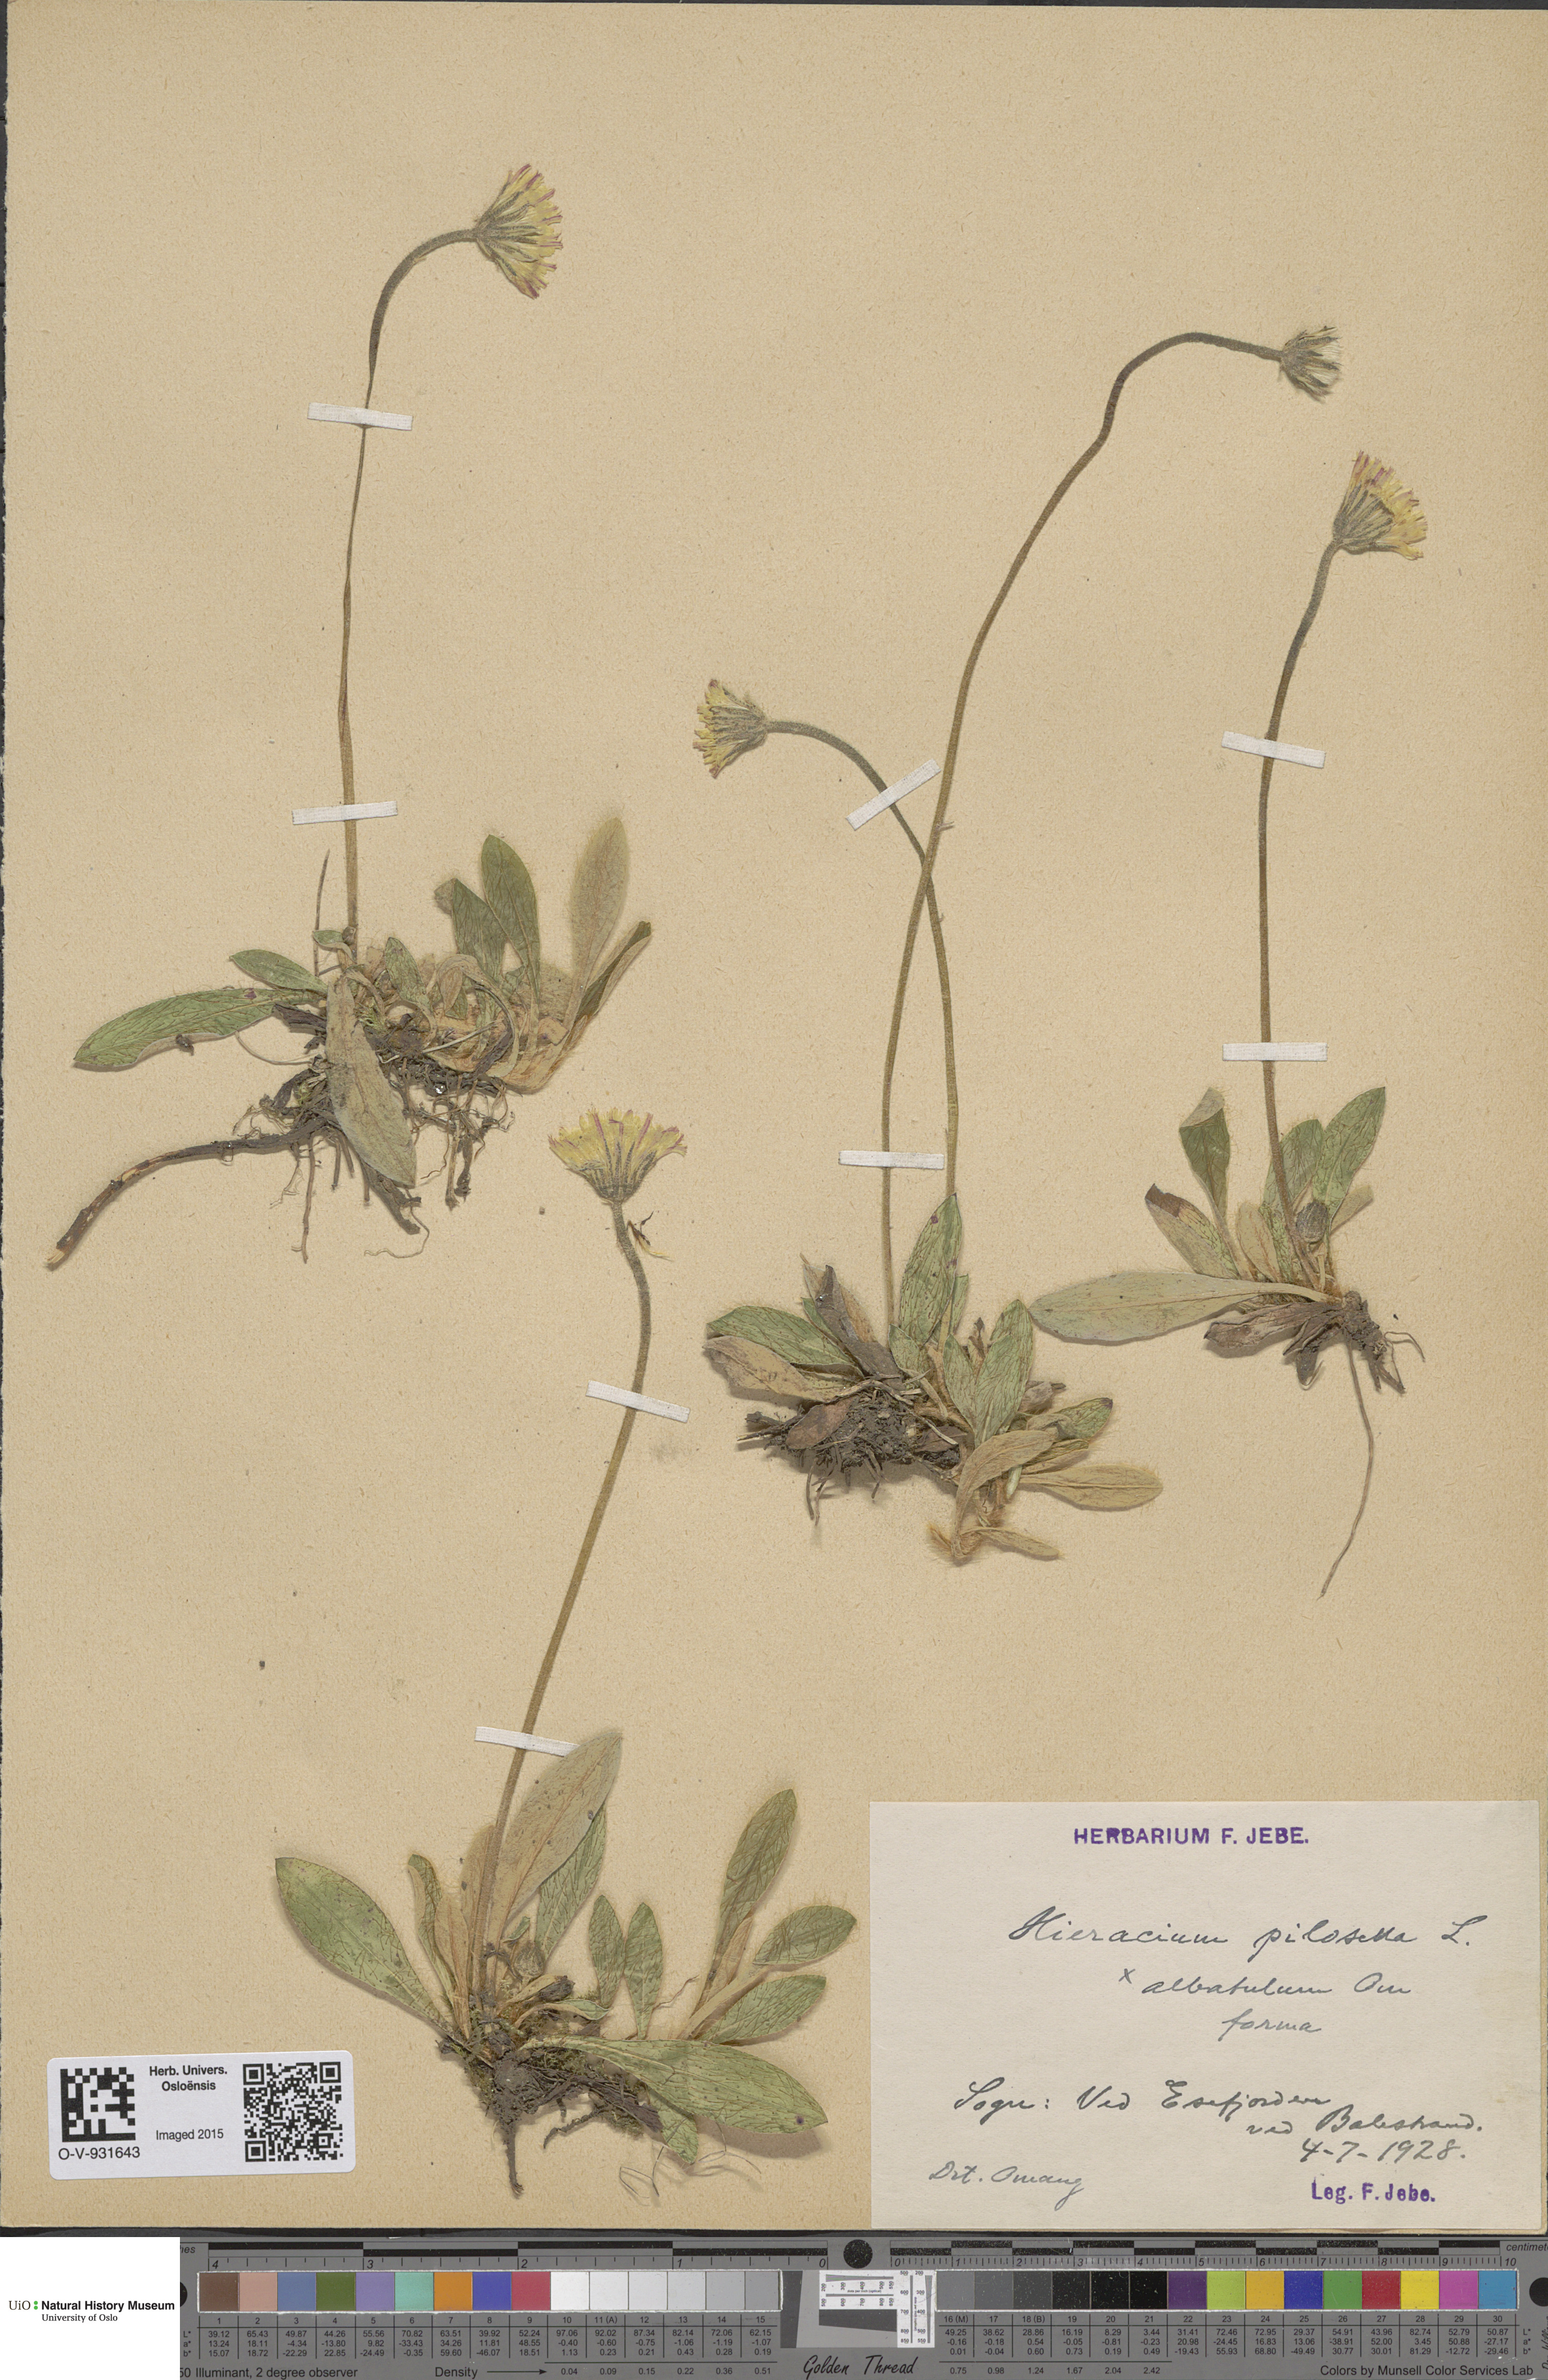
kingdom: Plantae
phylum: Tracheophyta
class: Magnoliopsida
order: Asterales
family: Asteraceae
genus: Pilosella
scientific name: Pilosella officinarum
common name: Mouse-ear hawkweed
